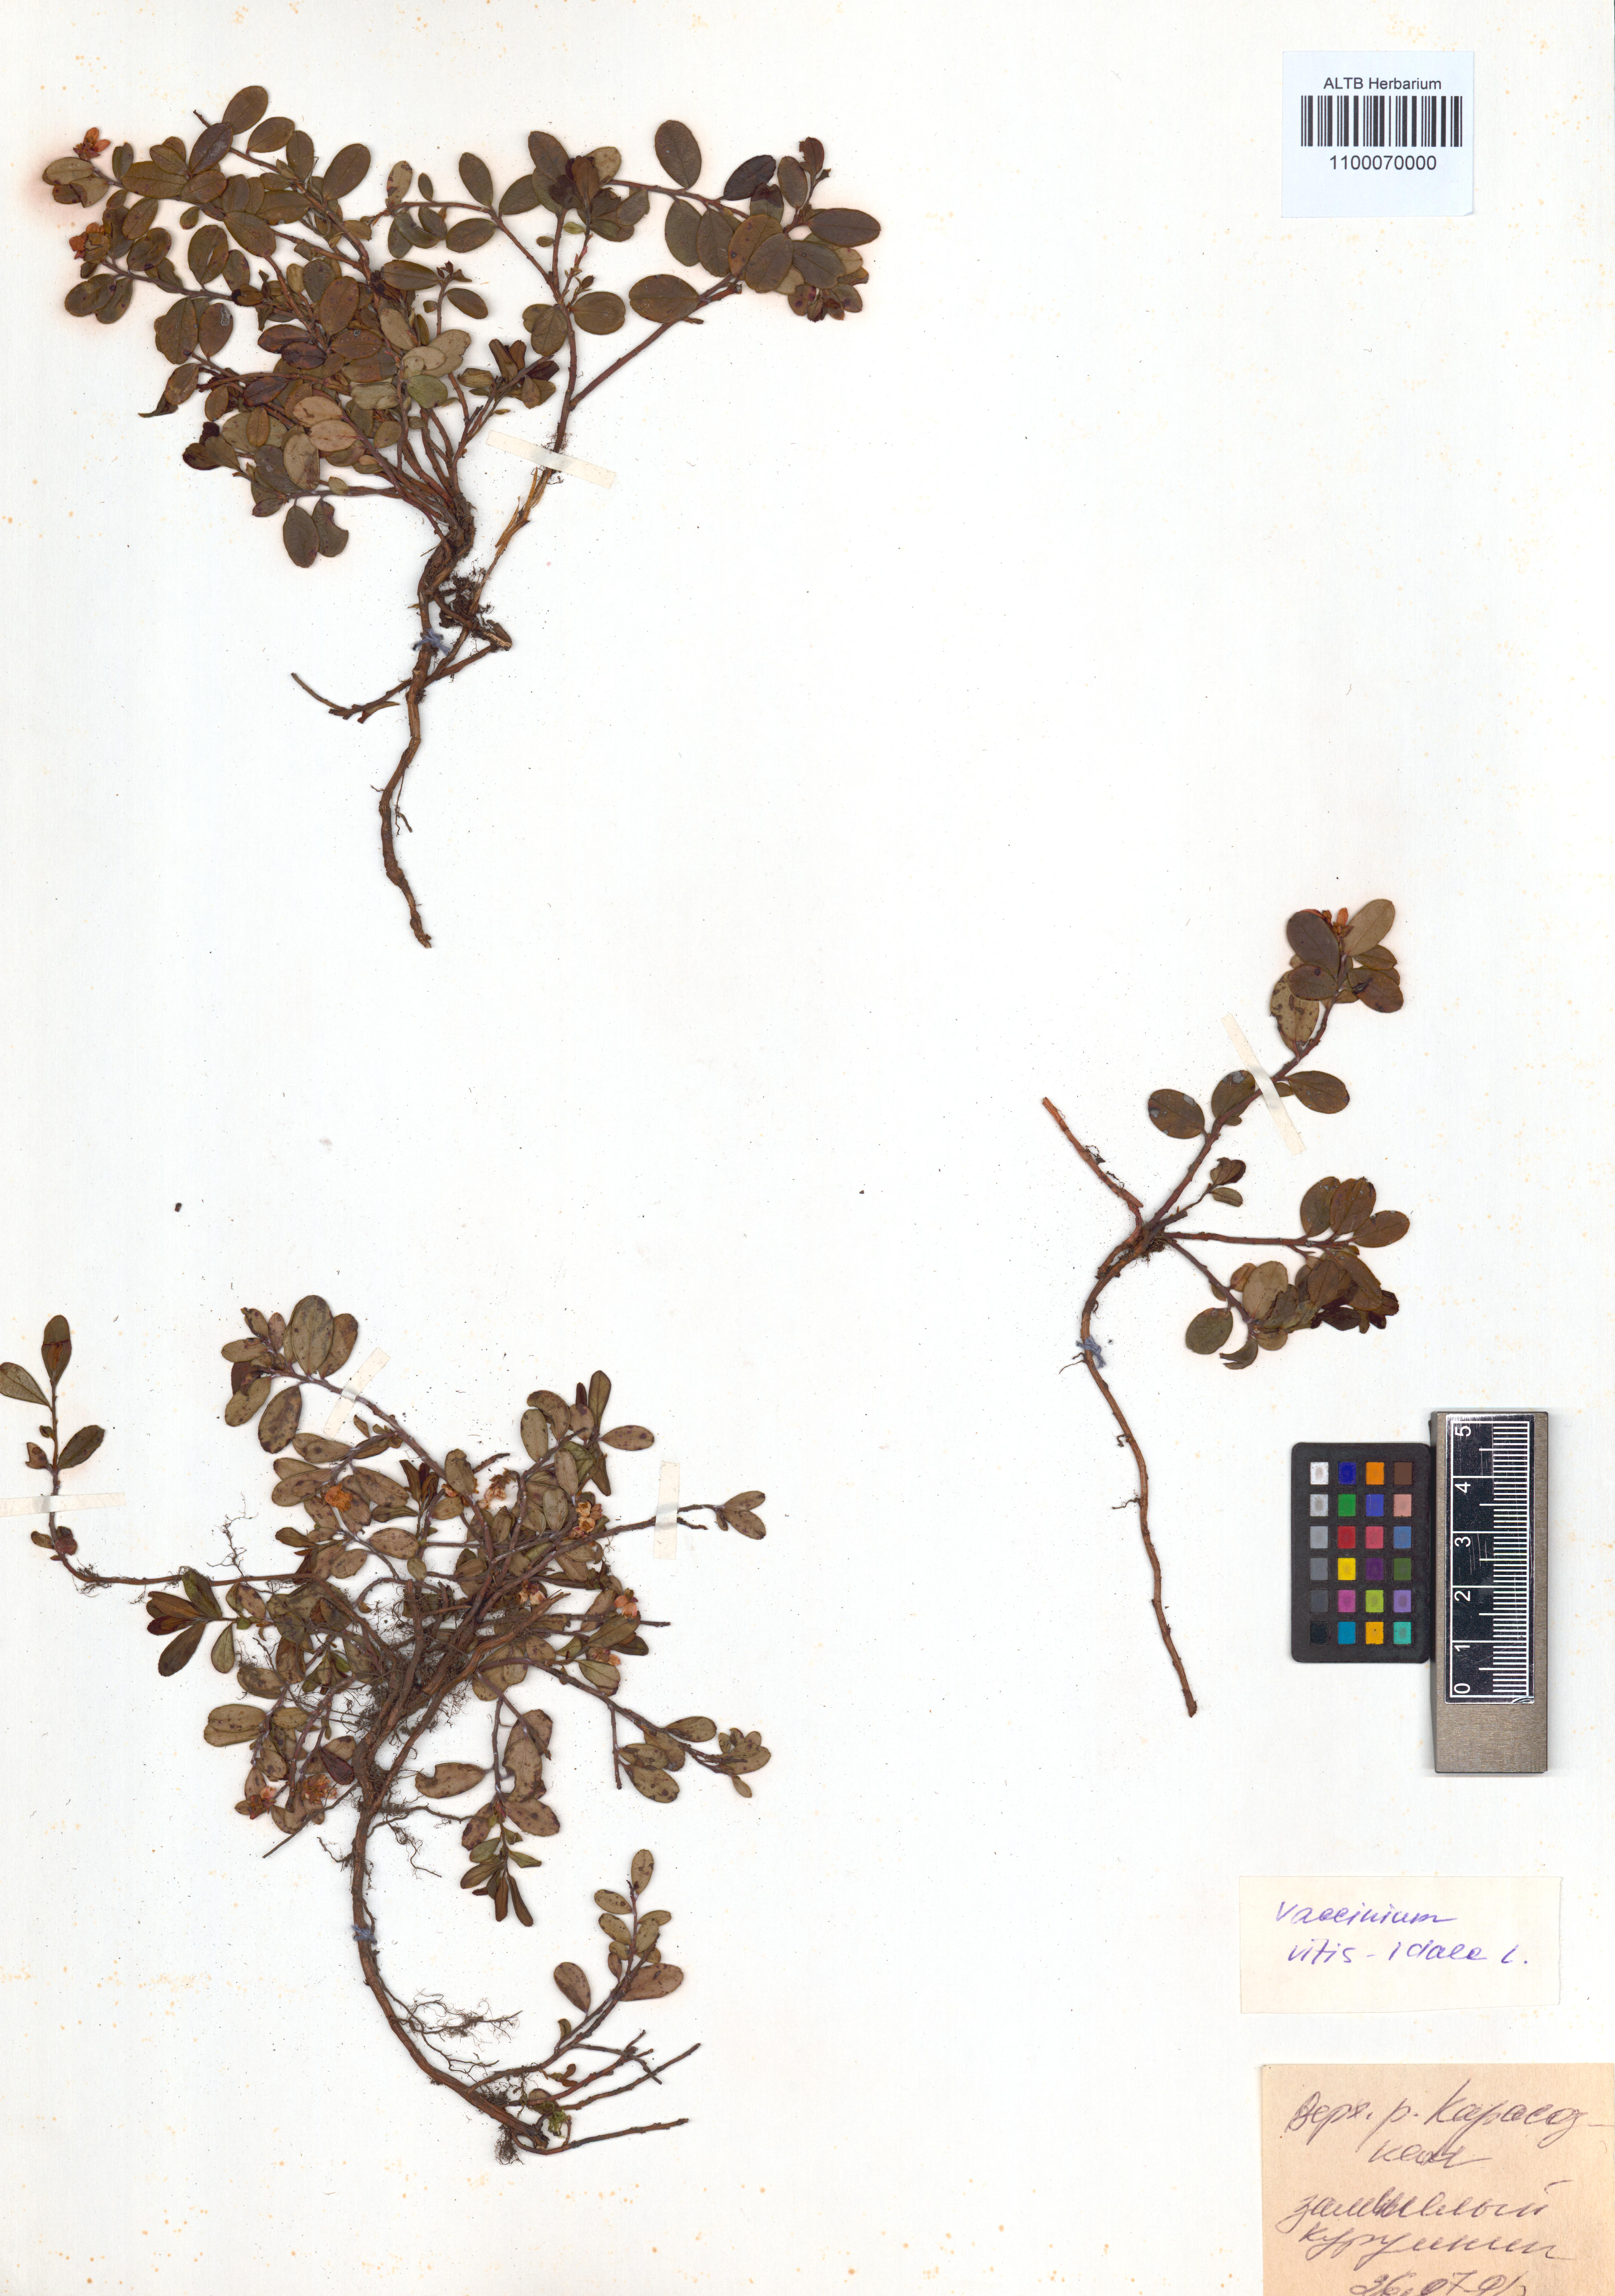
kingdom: Plantae
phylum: Tracheophyta
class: Magnoliopsida
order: Ericales
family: Ericaceae
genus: Vaccinium
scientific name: Vaccinium vitis-idaea
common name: Cowberry
